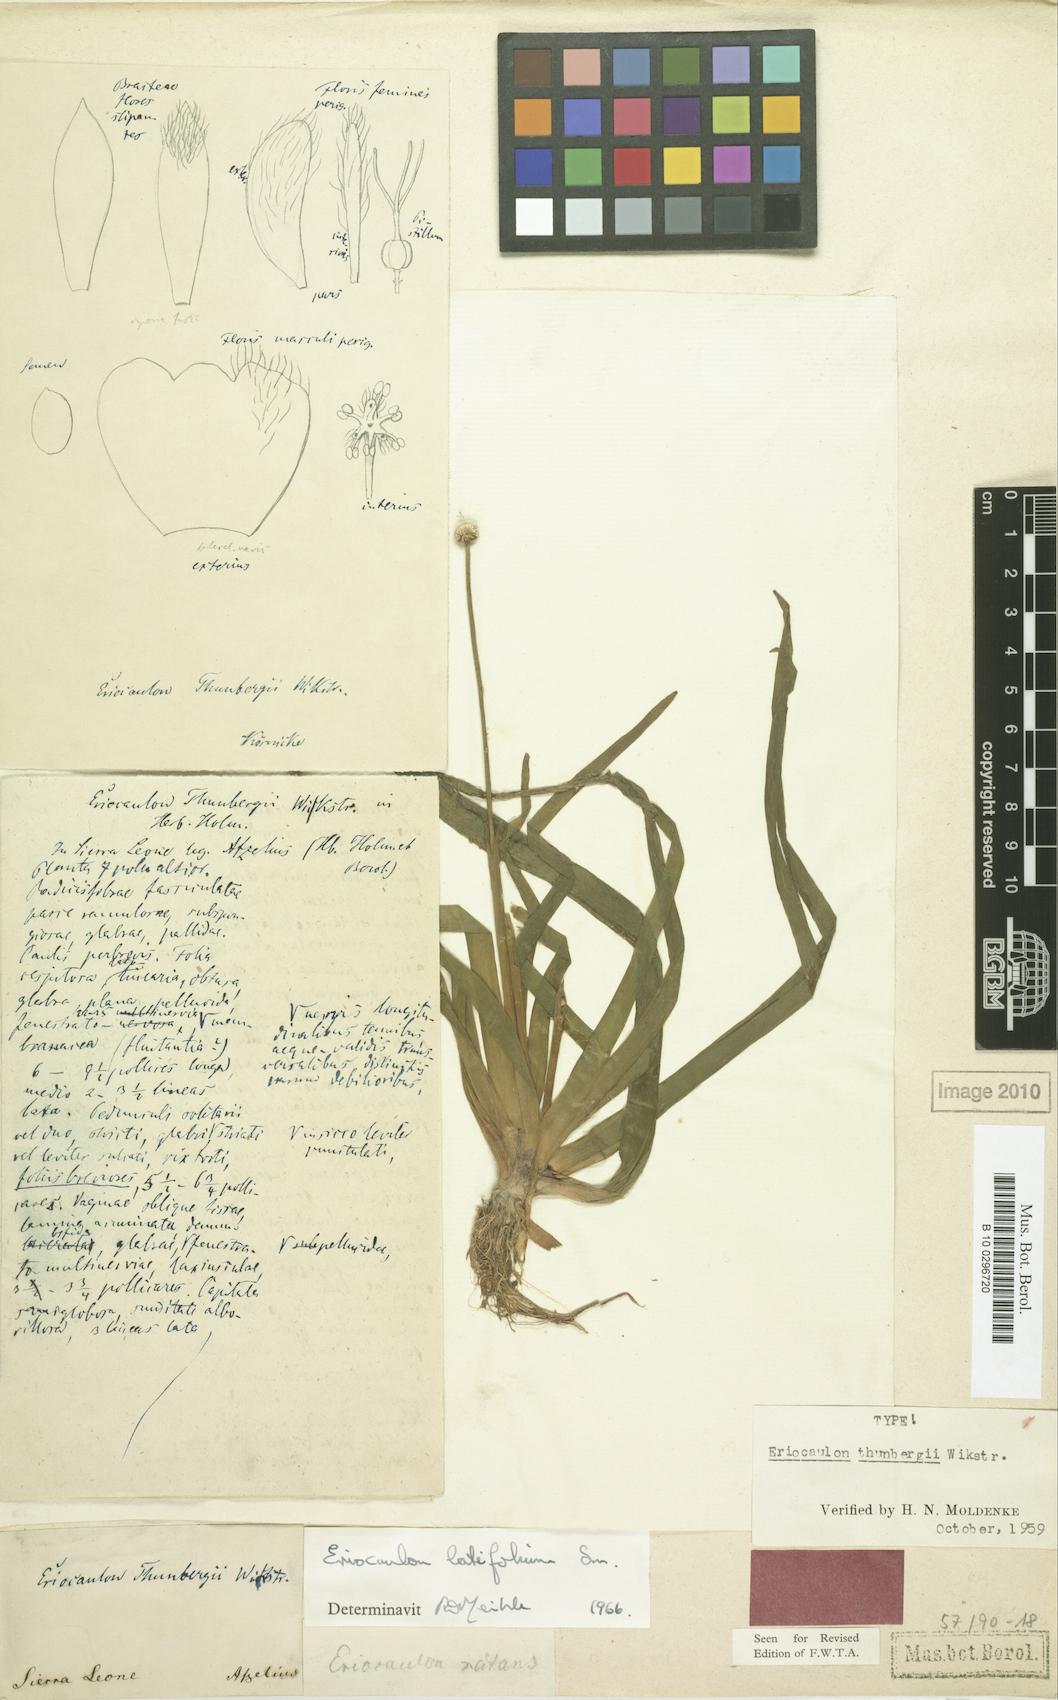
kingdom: Plantae
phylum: Tracheophyta
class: Liliopsida
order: Poales
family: Eriocaulaceae
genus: Eriocaulon
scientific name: Eriocaulon latifolium
